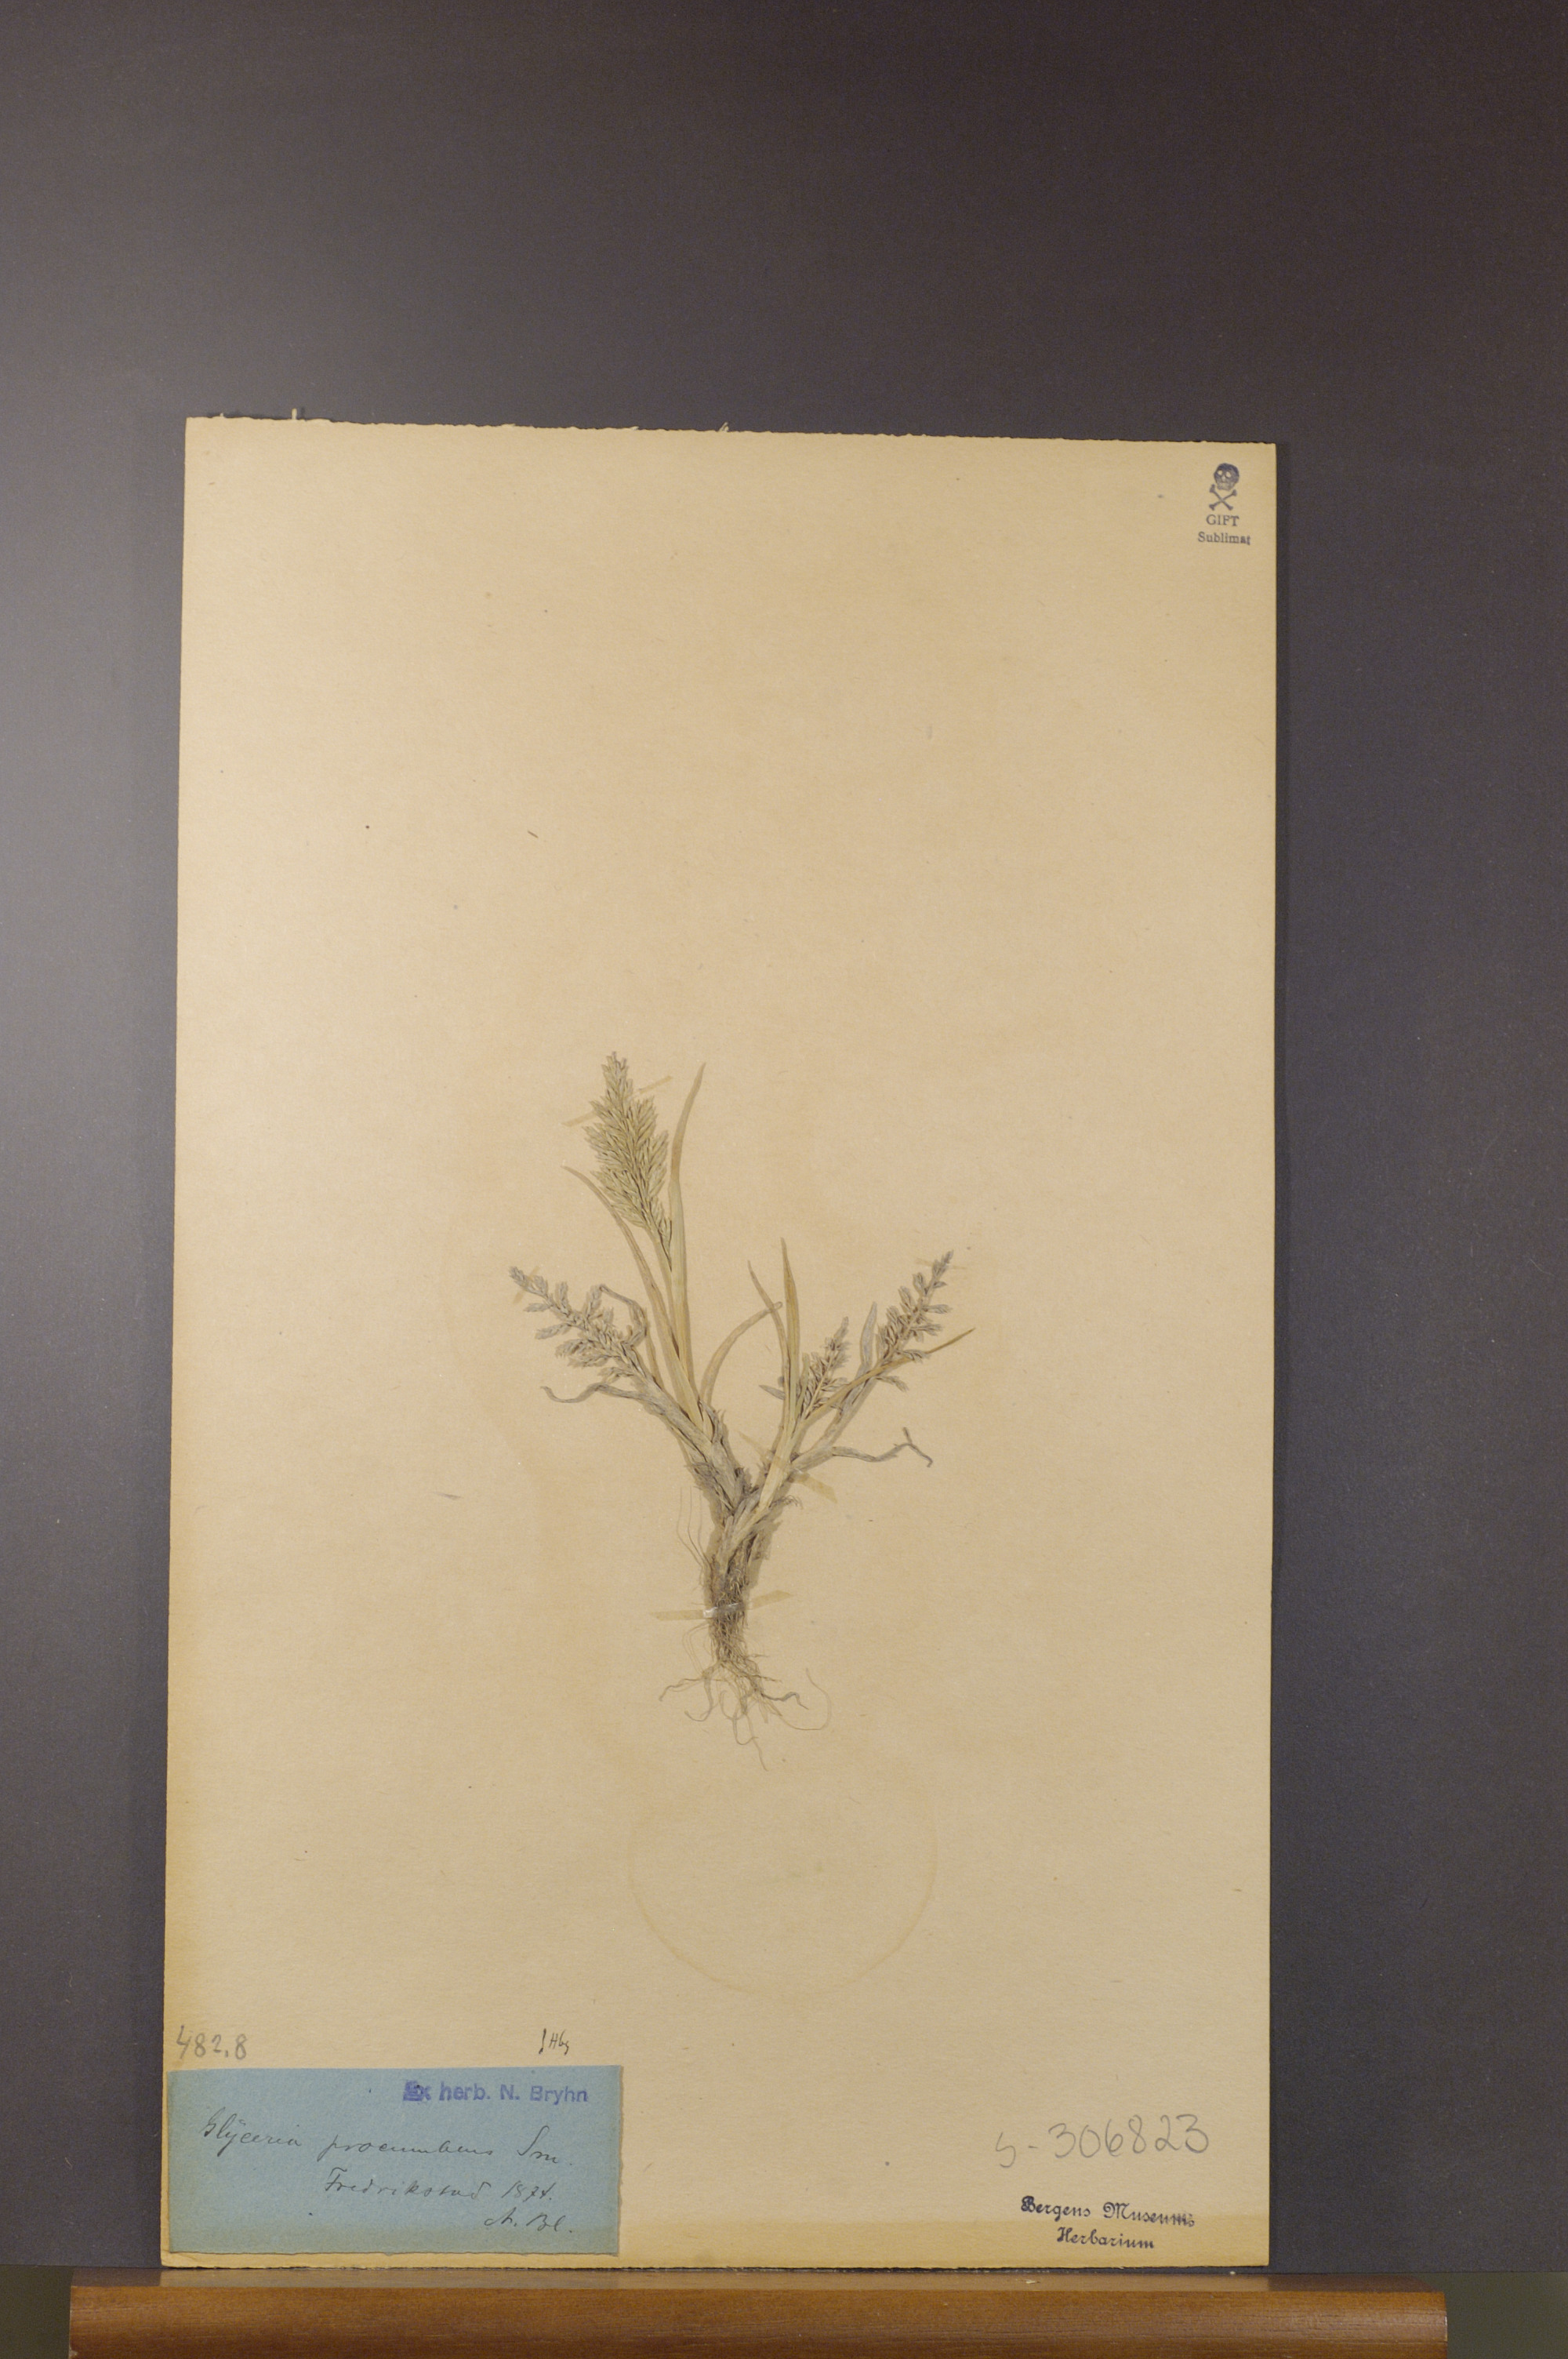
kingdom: Plantae
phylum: Tracheophyta
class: Liliopsida
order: Poales
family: Poaceae
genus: Puccinellia
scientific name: Puccinellia rupestris
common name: Stiff saltmarsh-grass
